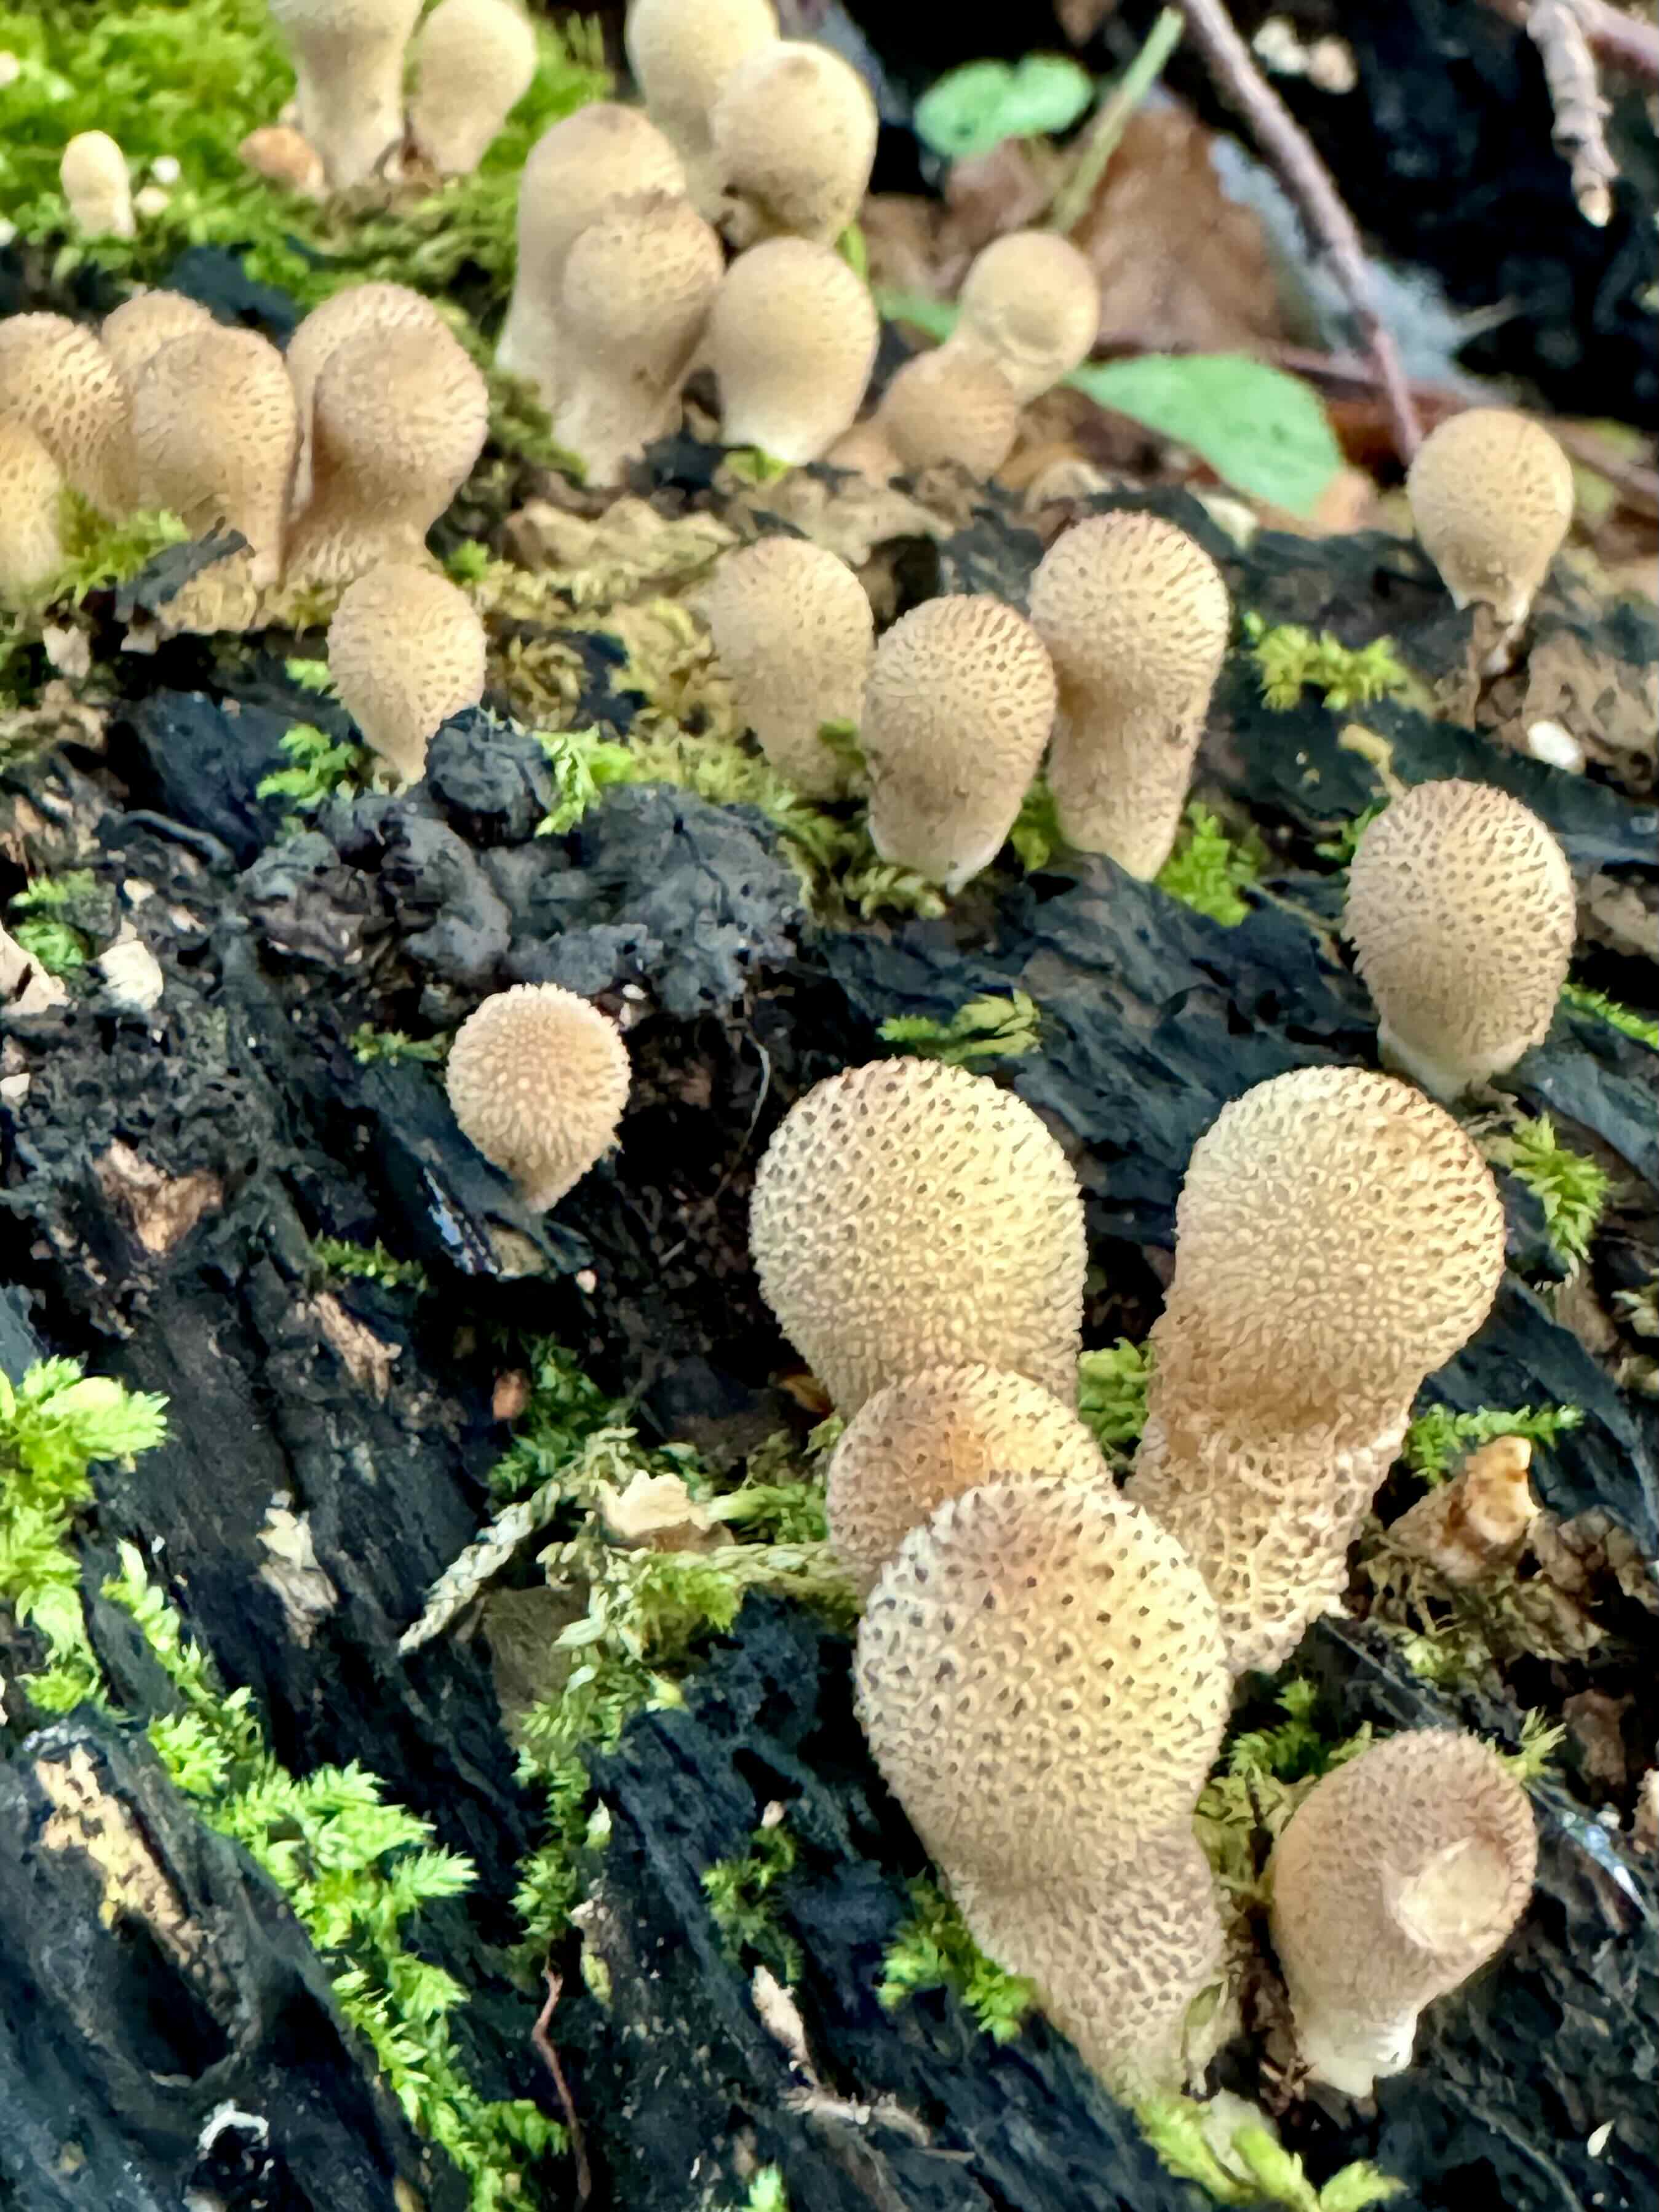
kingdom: Fungi
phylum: Basidiomycota
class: Agaricomycetes
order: Agaricales
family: Lycoperdaceae
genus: Lycoperdon
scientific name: Lycoperdon perlatum
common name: krystal-støvbold
